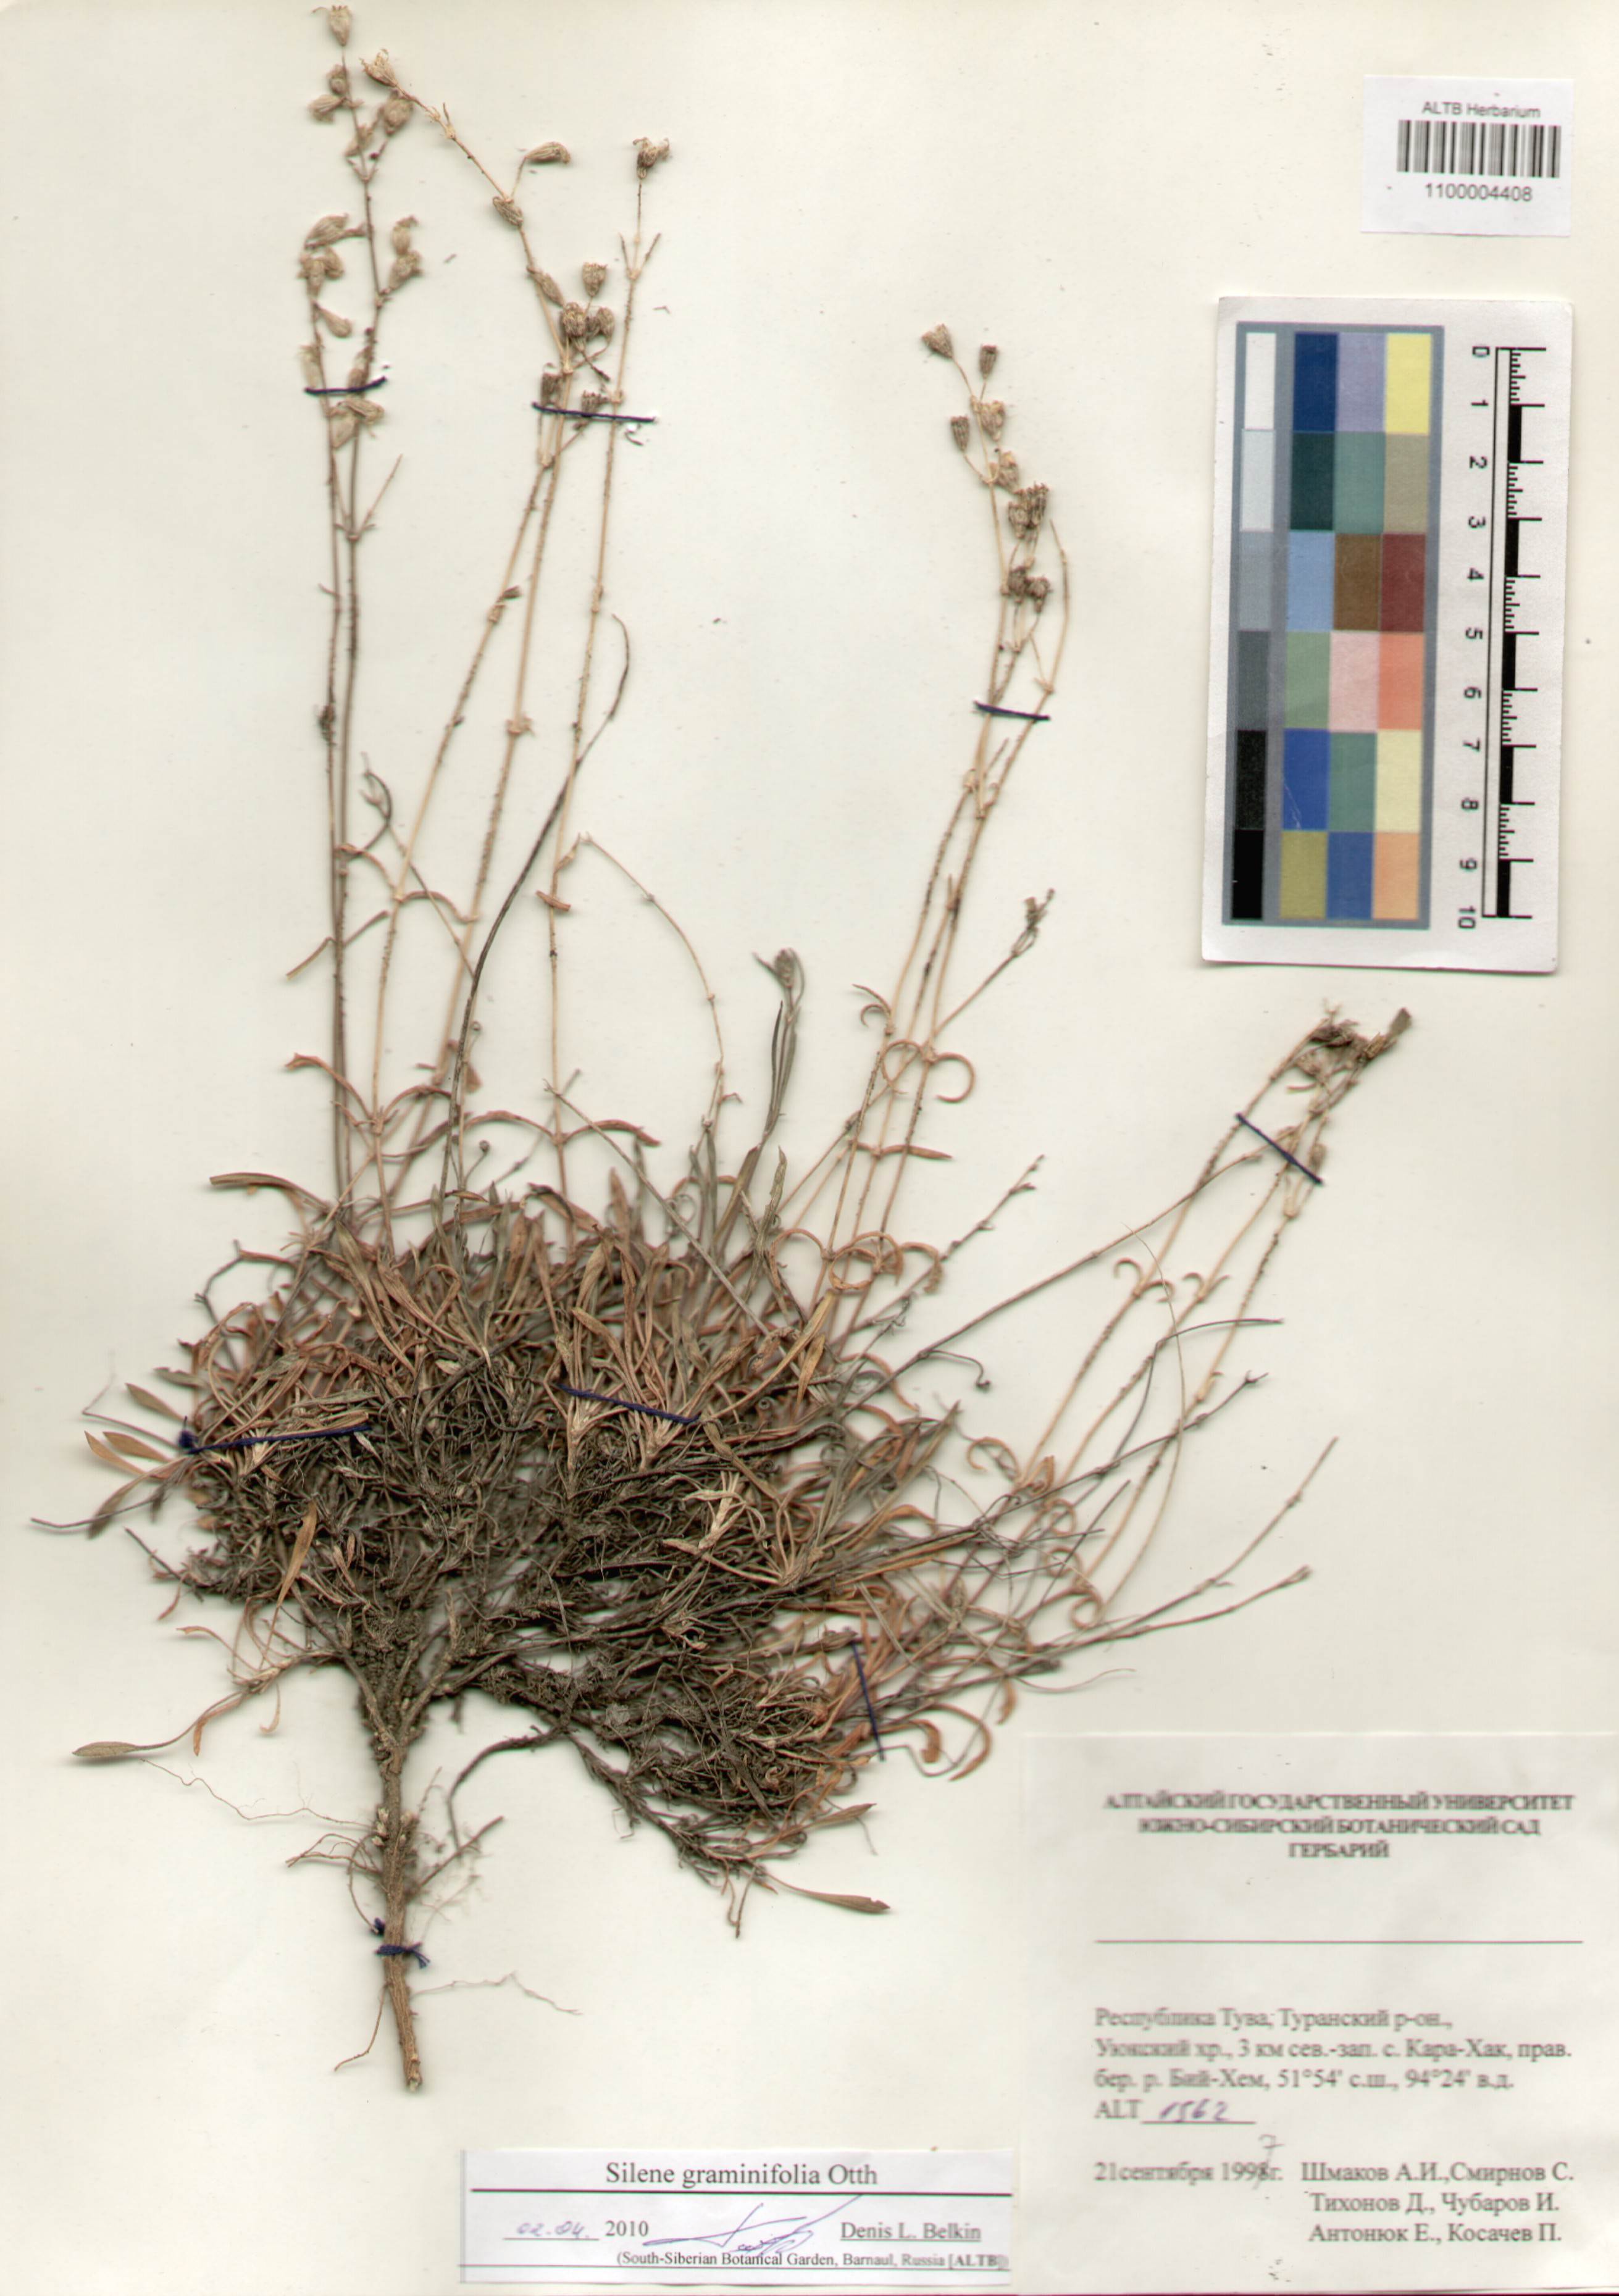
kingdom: Plantae
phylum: Tracheophyta
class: Magnoliopsida
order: Caryophyllales
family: Caryophyllaceae
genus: Silene
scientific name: Silene graminifolia
